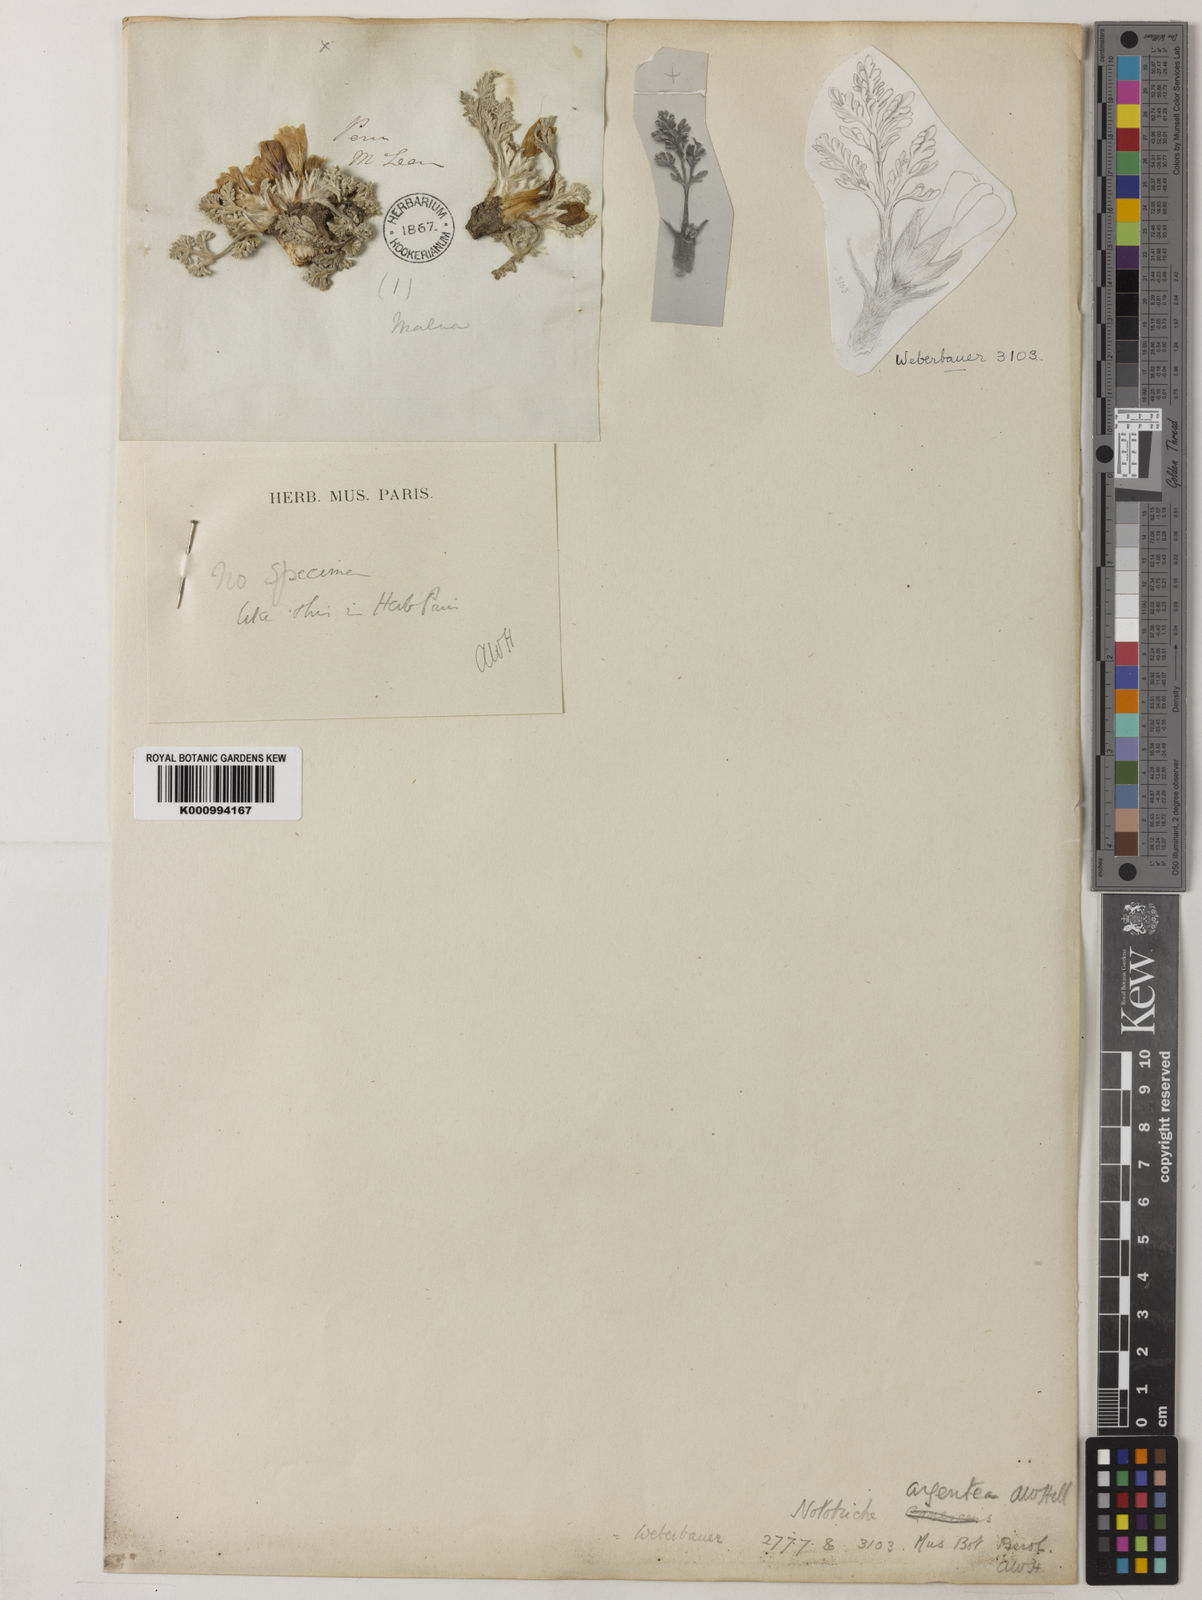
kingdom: Plantae
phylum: Tracheophyta
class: Magnoliopsida
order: Malvales
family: Malvaceae
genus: Nototriche
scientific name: Nototriche argentea
